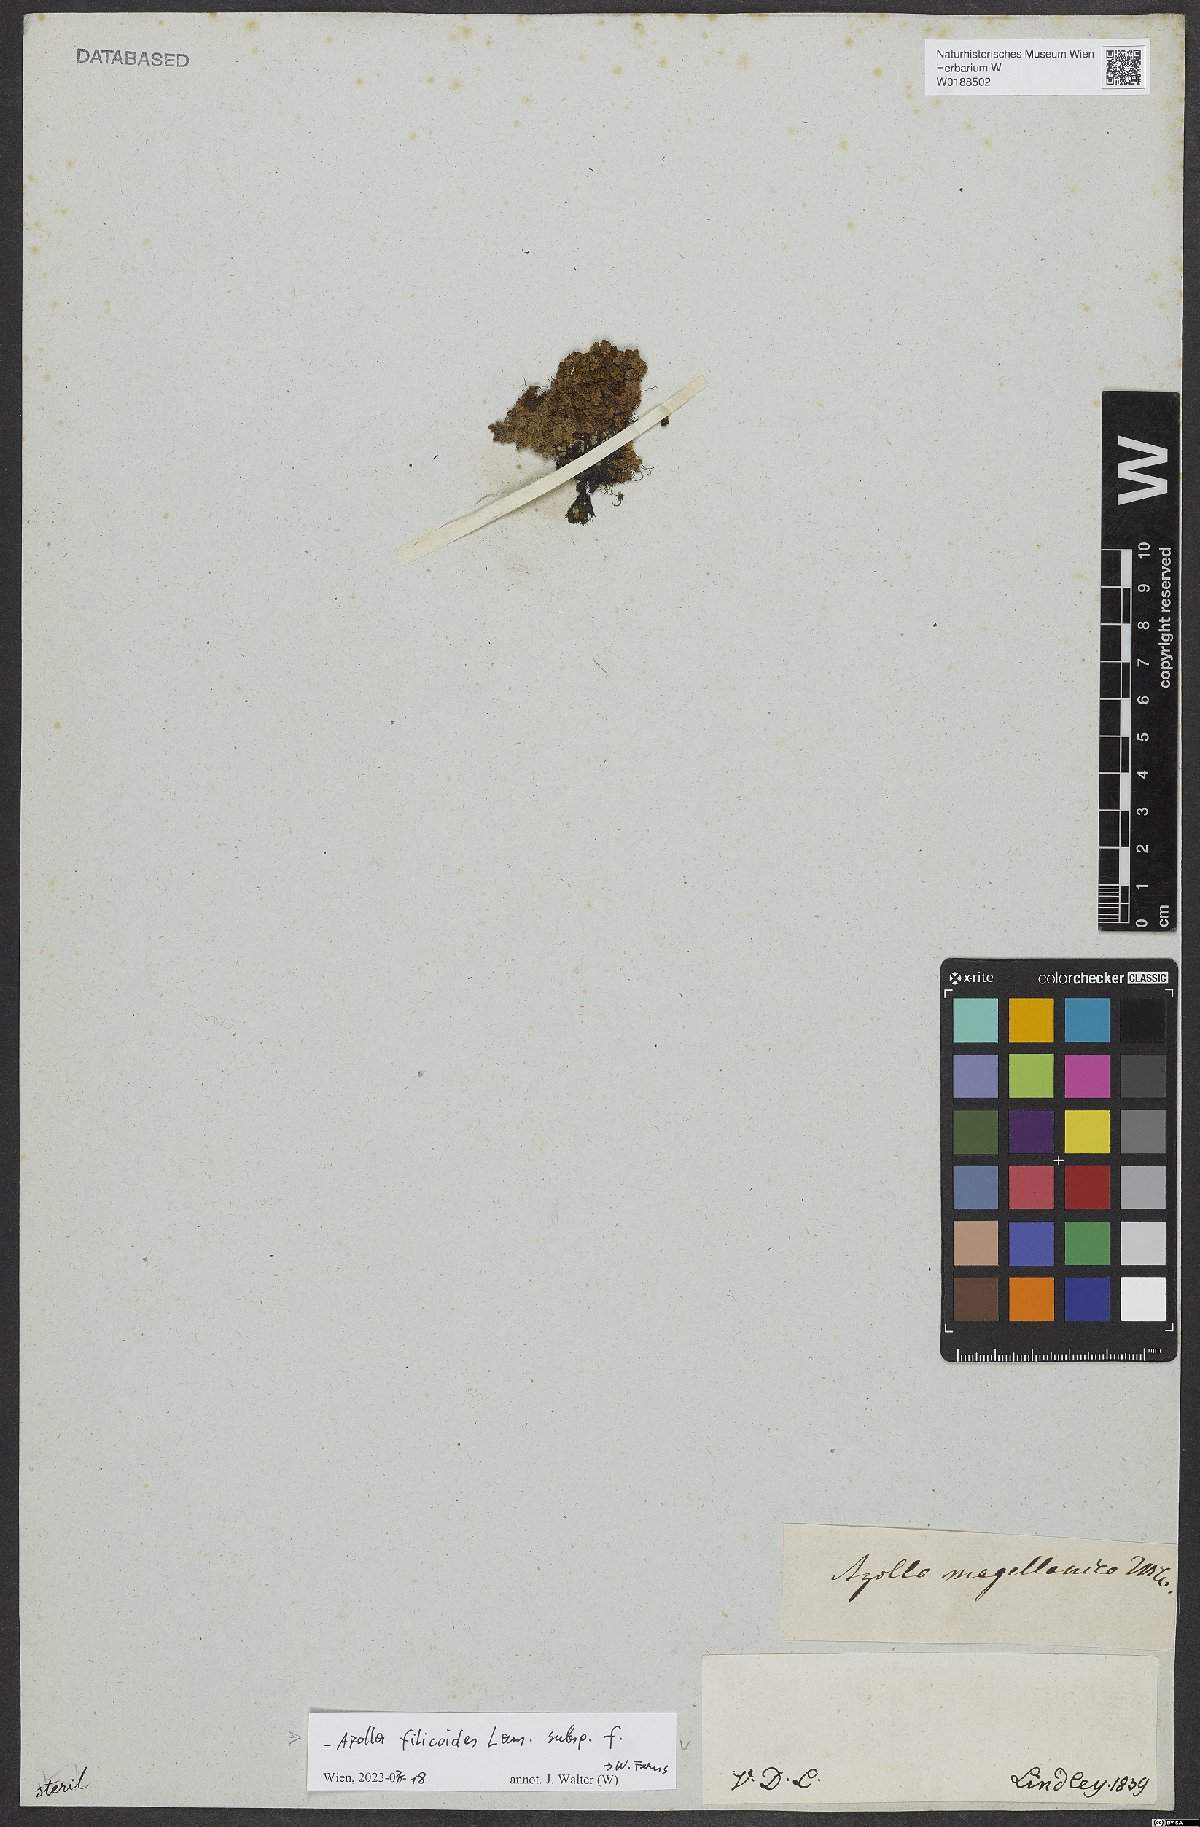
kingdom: Plantae
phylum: Tracheophyta
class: Polypodiopsida
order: Salviniales
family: Salviniaceae
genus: Azolla
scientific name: Azolla filiculoides
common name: Water fern
